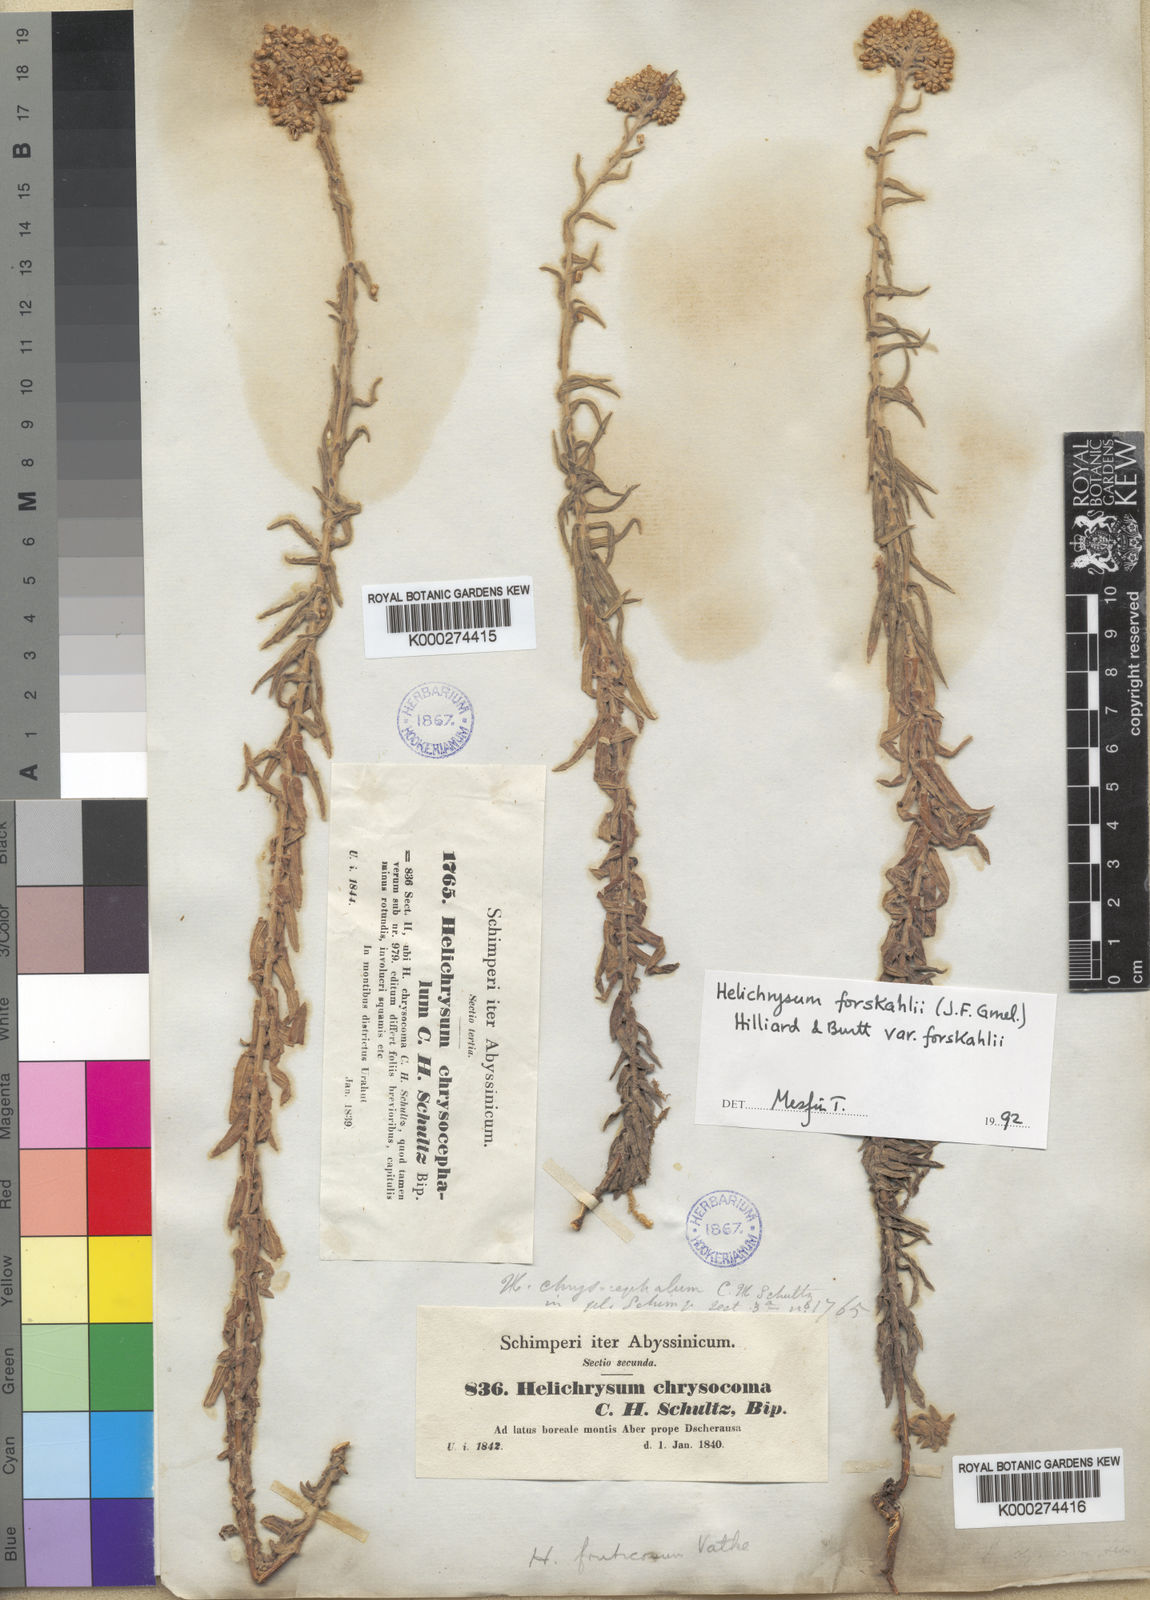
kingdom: Plantae
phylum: Tracheophyta
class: Magnoliopsida
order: Asterales
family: Asteraceae
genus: Helichrysum
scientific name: Helichrysum forskahlii
